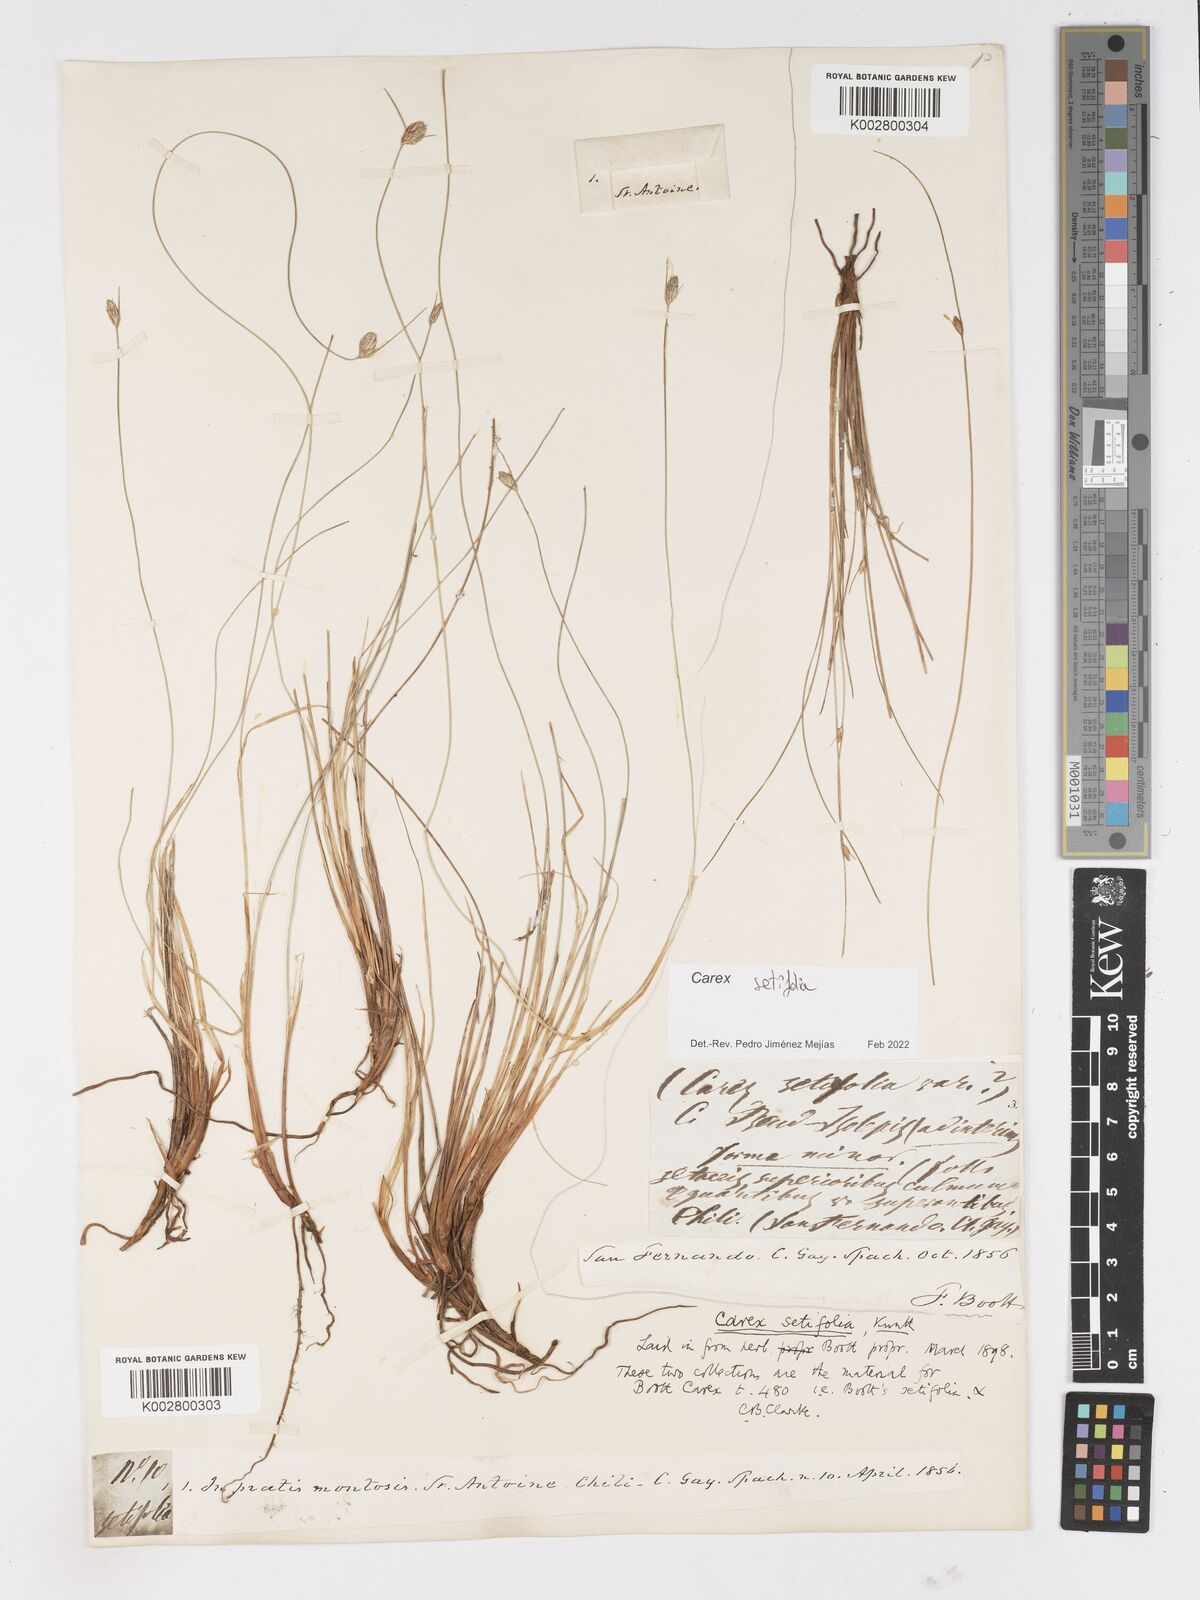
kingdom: Plantae
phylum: Tracheophyta
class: Liliopsida
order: Poales
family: Cyperaceae
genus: Carex
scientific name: Carex andina
